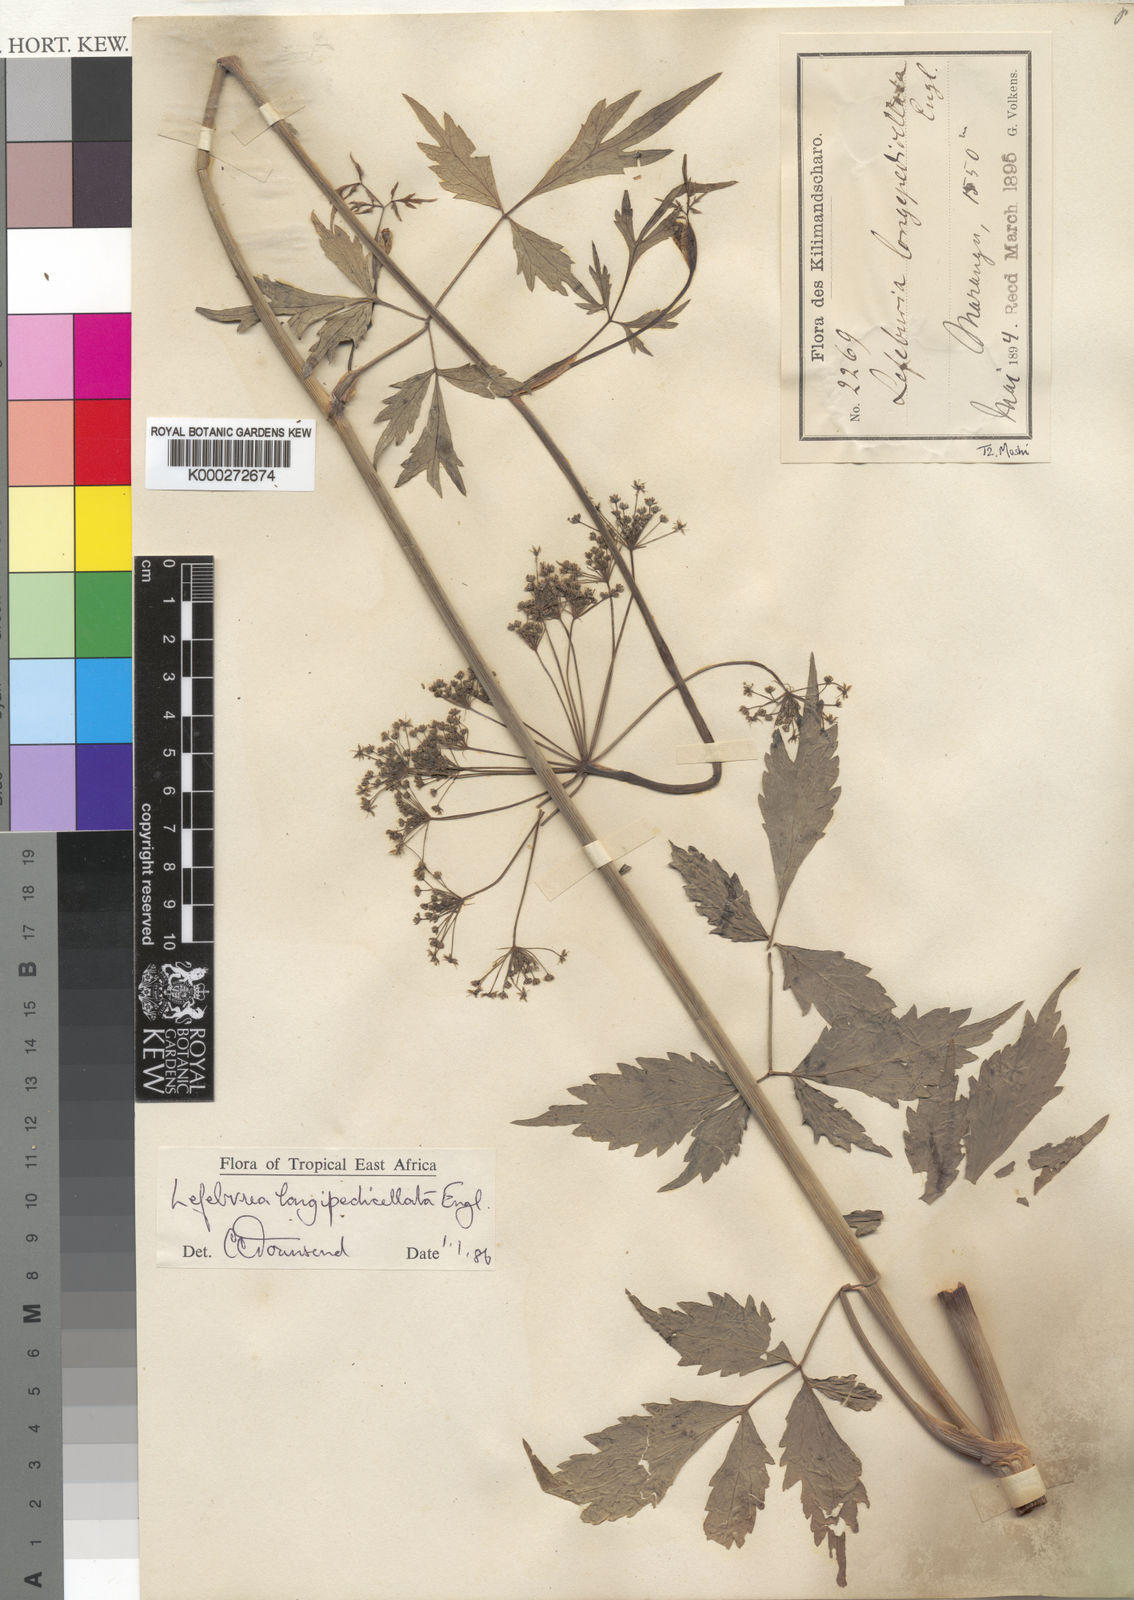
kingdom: Plantae
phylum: Tracheophyta
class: Magnoliopsida
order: Apiales
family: Apiaceae
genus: Lefebvrea
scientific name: Lefebvrea
